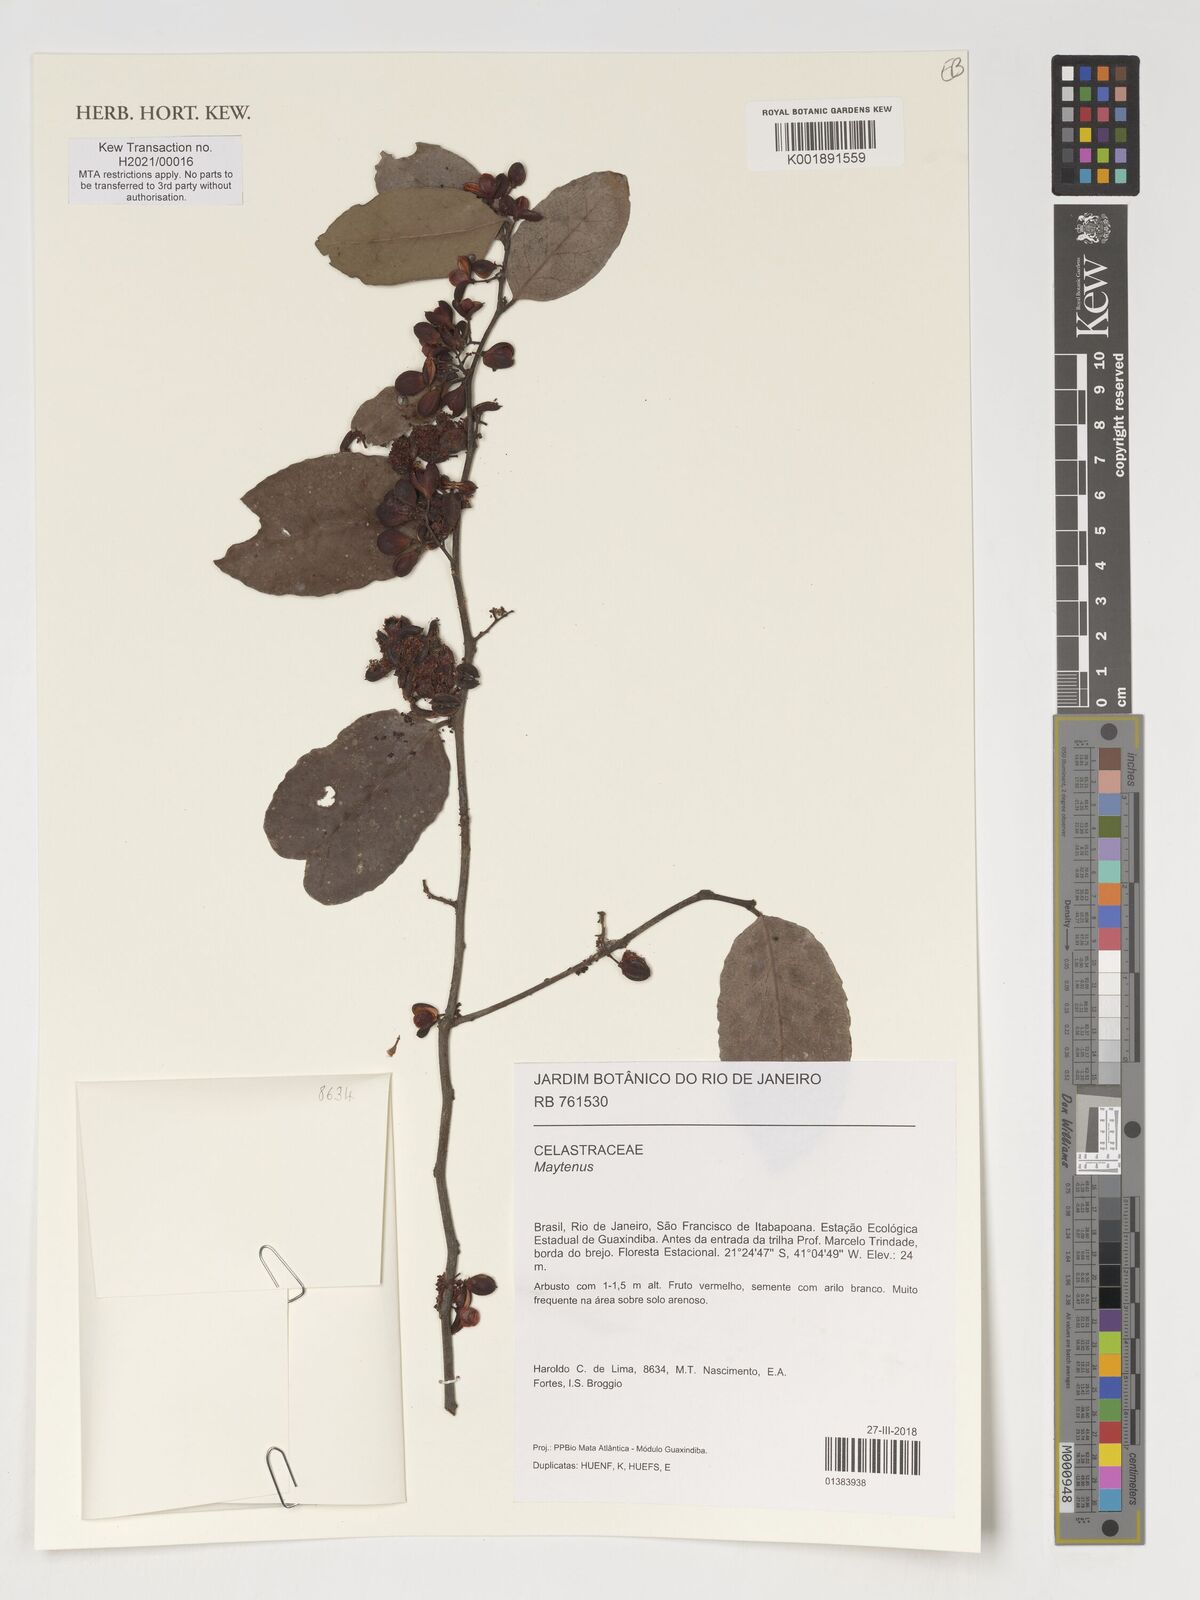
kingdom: Plantae
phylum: Tracheophyta
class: Magnoliopsida
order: Celastrales
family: Celastraceae
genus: Maytenus
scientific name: Maytenus
